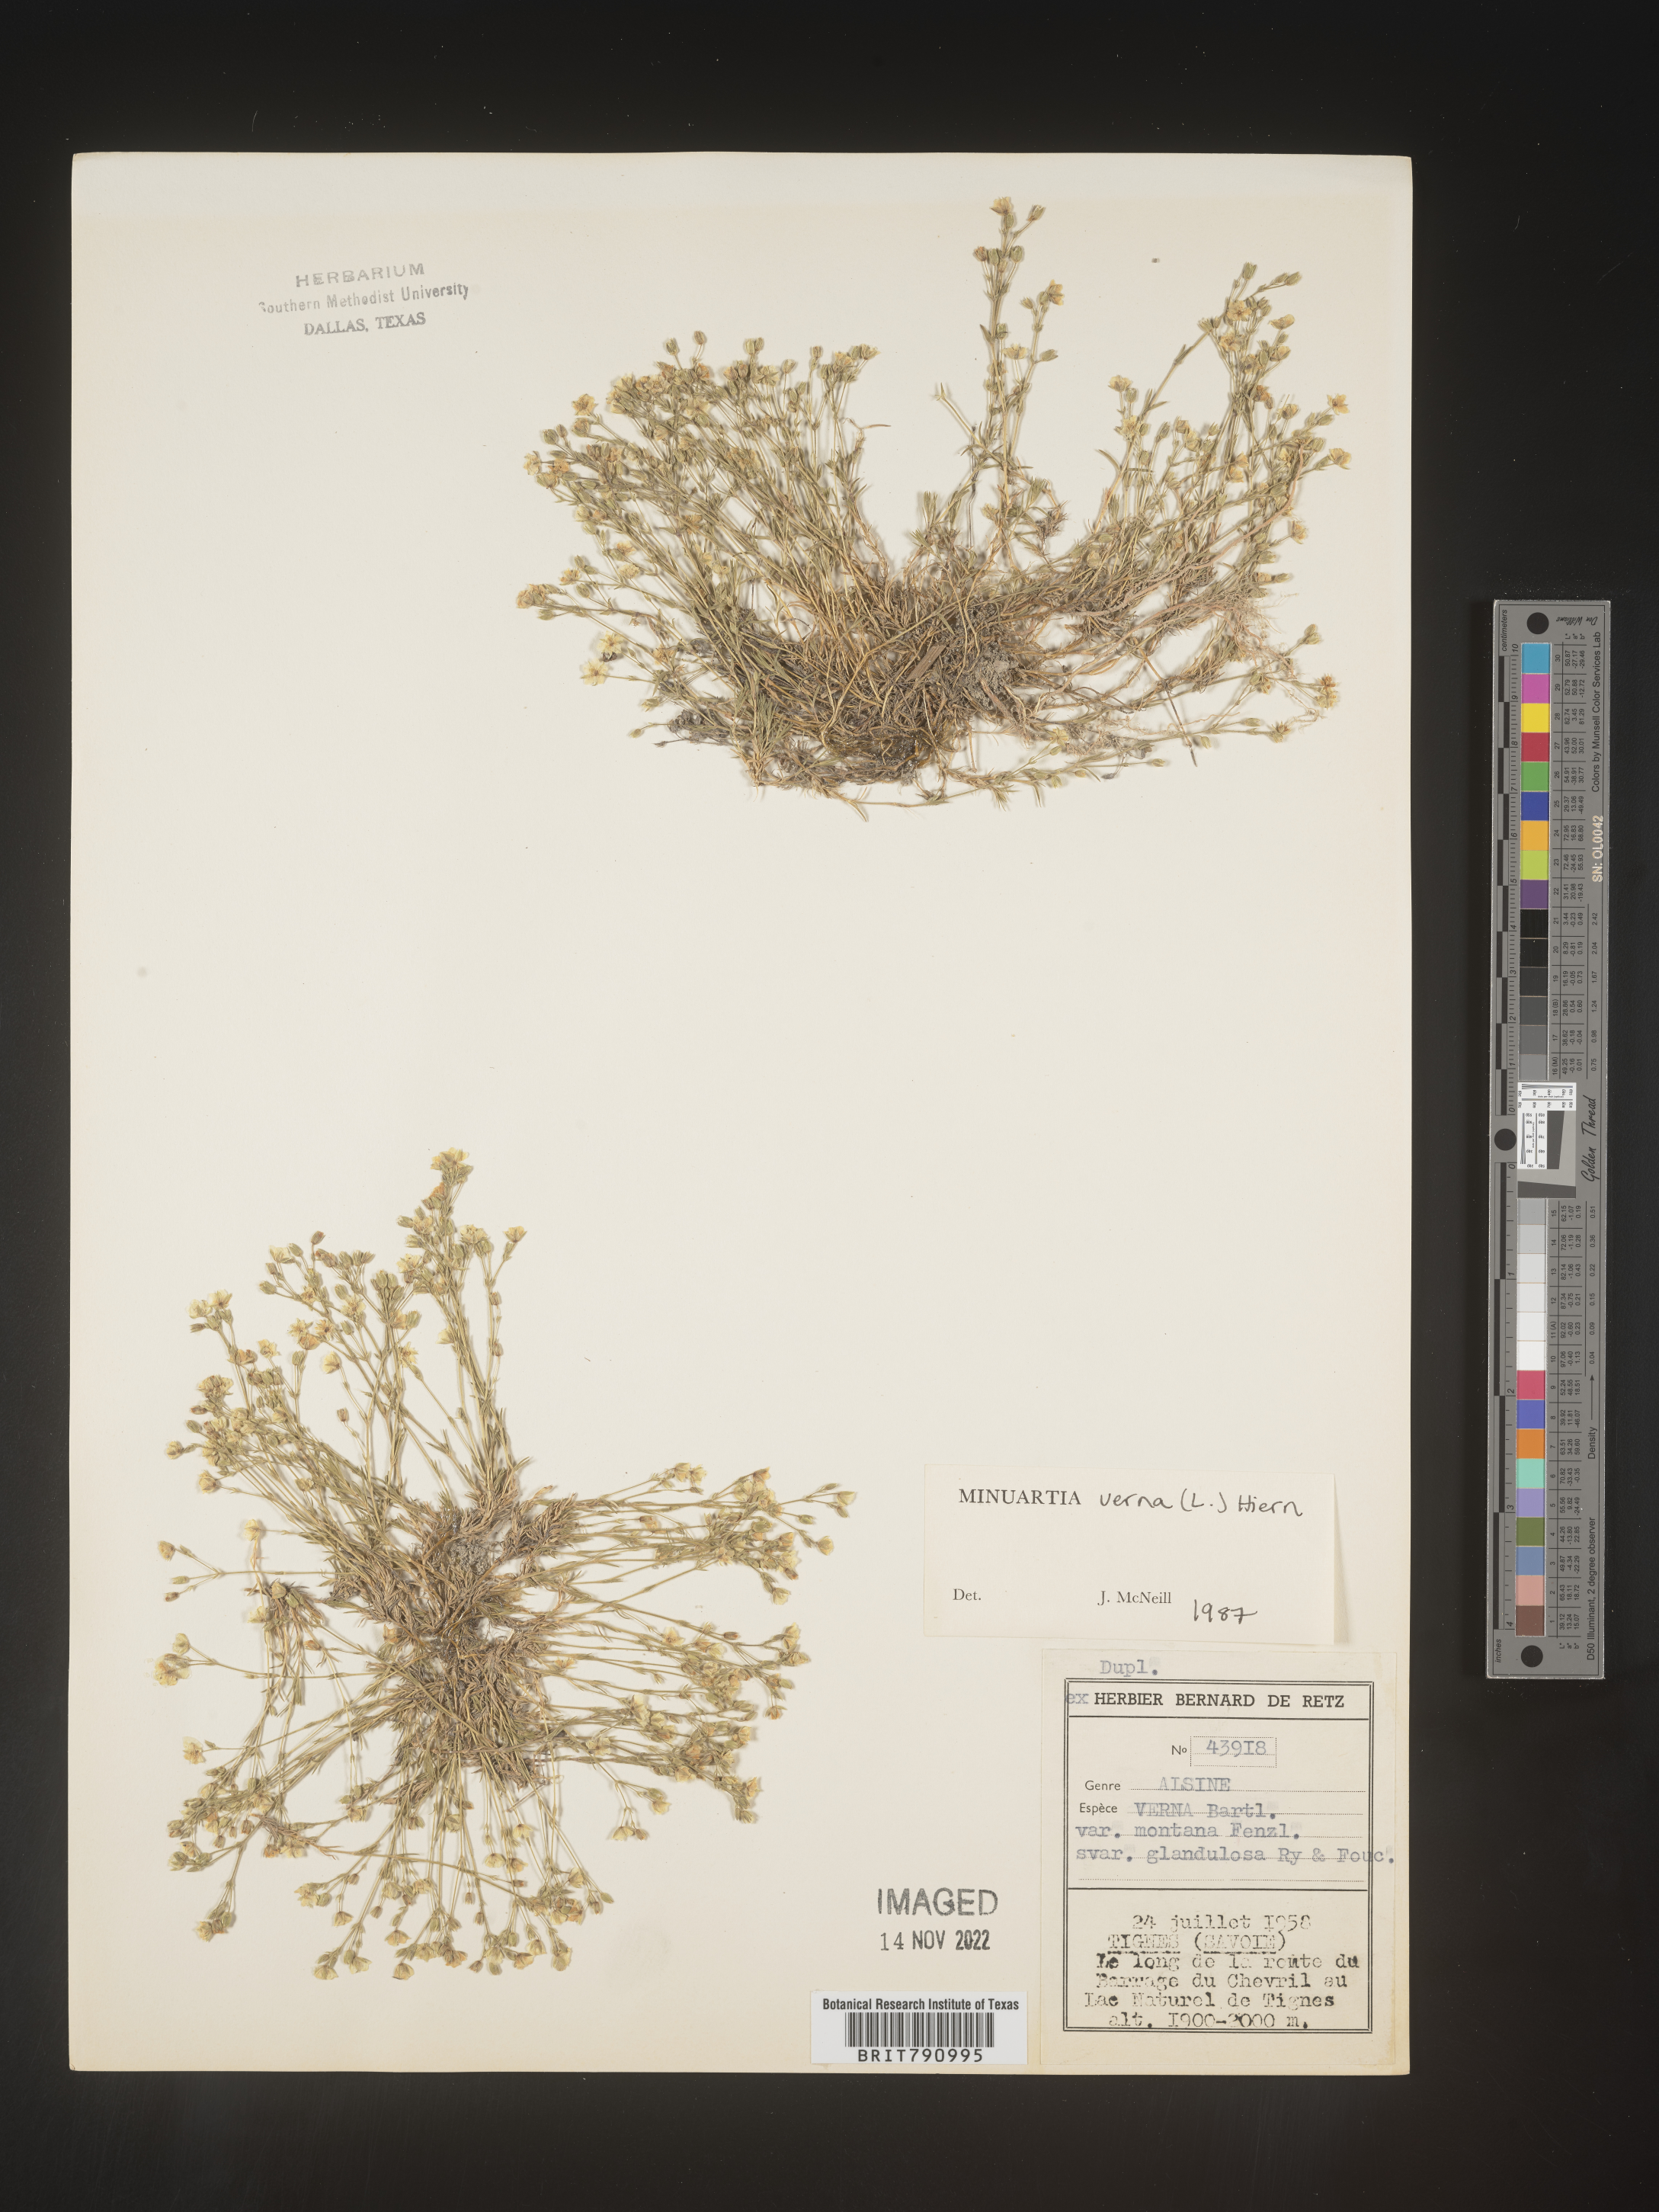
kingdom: Plantae
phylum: Tracheophyta
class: Magnoliopsida
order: Caryophyllales
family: Caryophyllaceae
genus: Minuartia
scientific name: Minuartia
